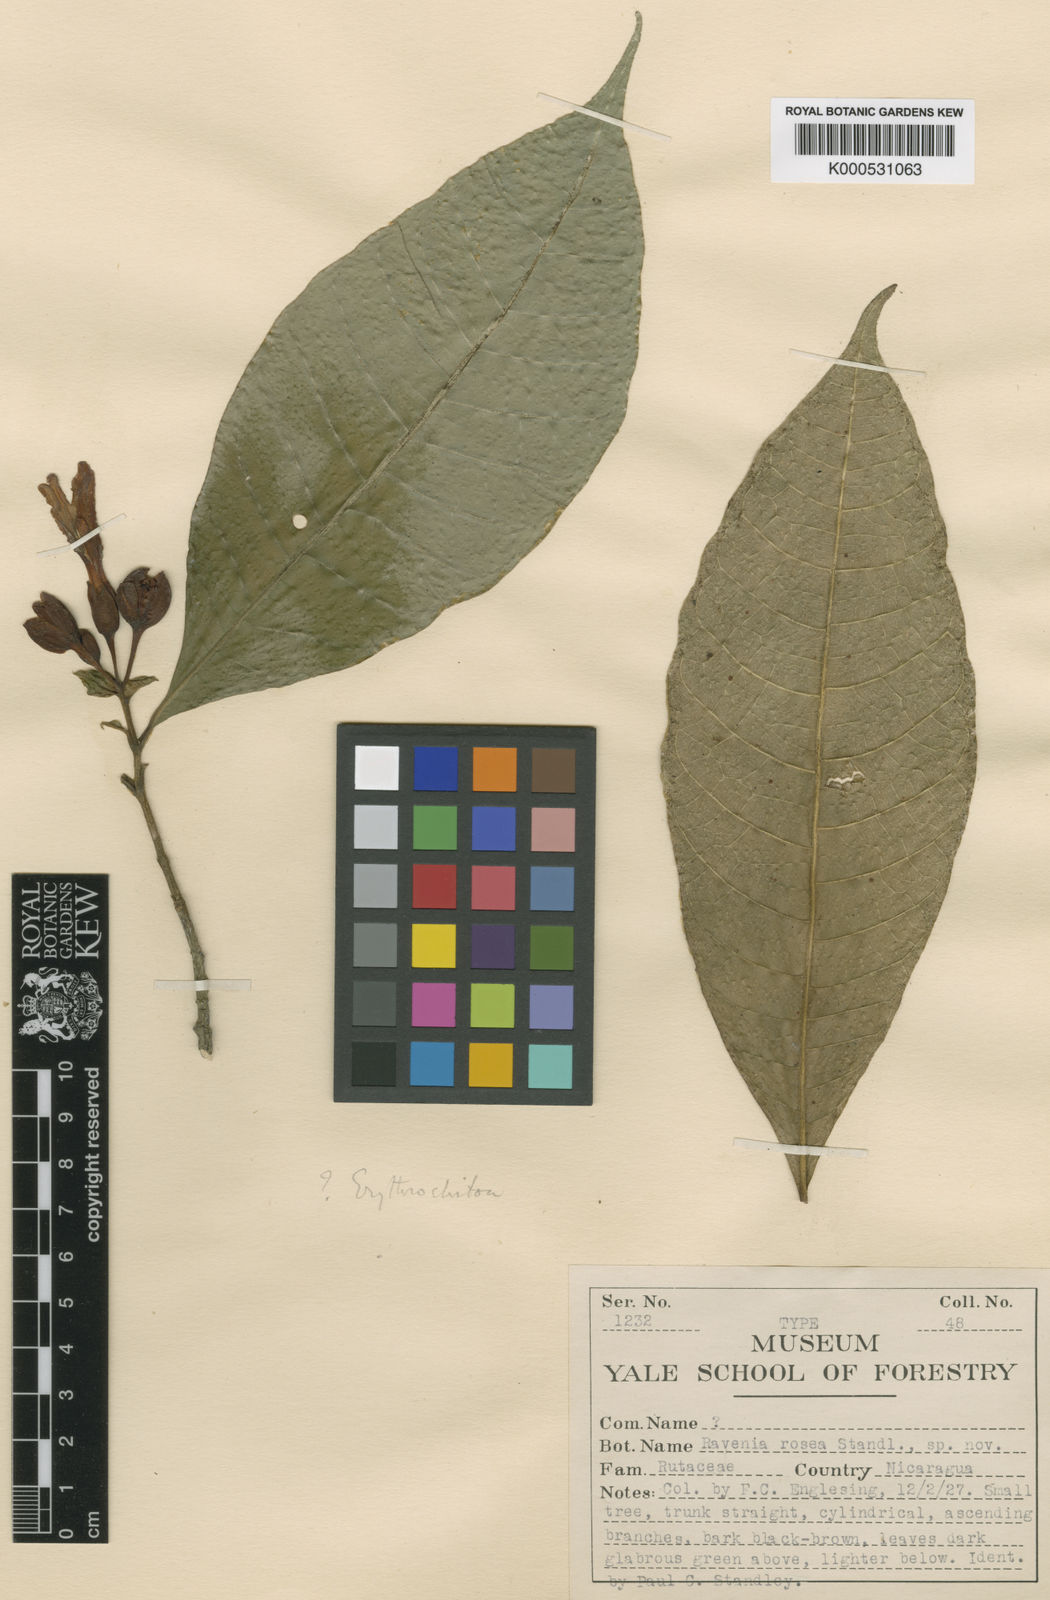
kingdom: Plantae
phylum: Tracheophyta
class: Magnoliopsida
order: Sapindales
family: Rutaceae
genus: Ravenia
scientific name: Ravenia rosea
